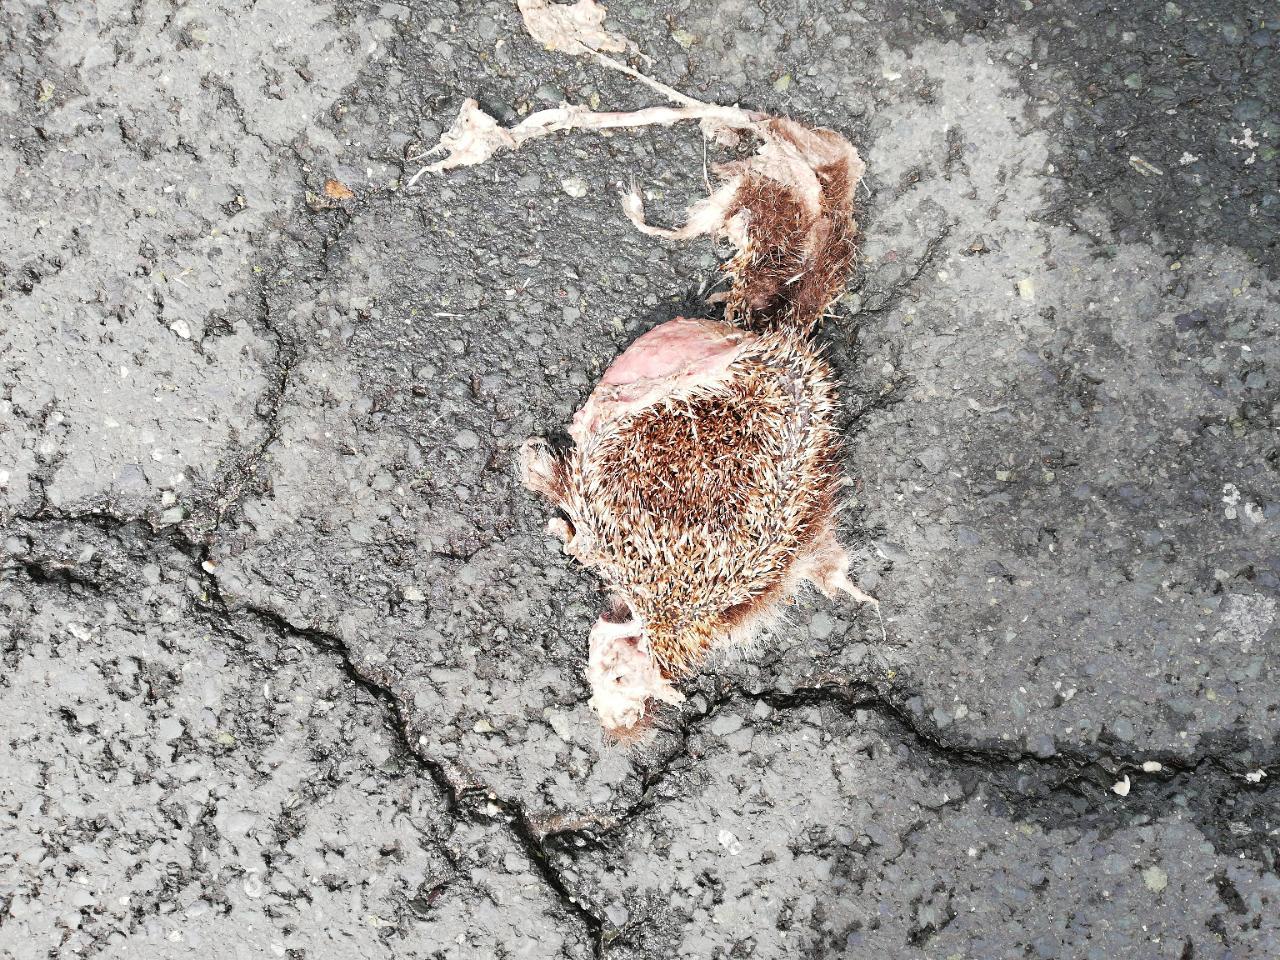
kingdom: Animalia
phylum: Chordata
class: Mammalia
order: Erinaceomorpha
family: Erinaceidae
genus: Erinaceus
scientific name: Erinaceus
